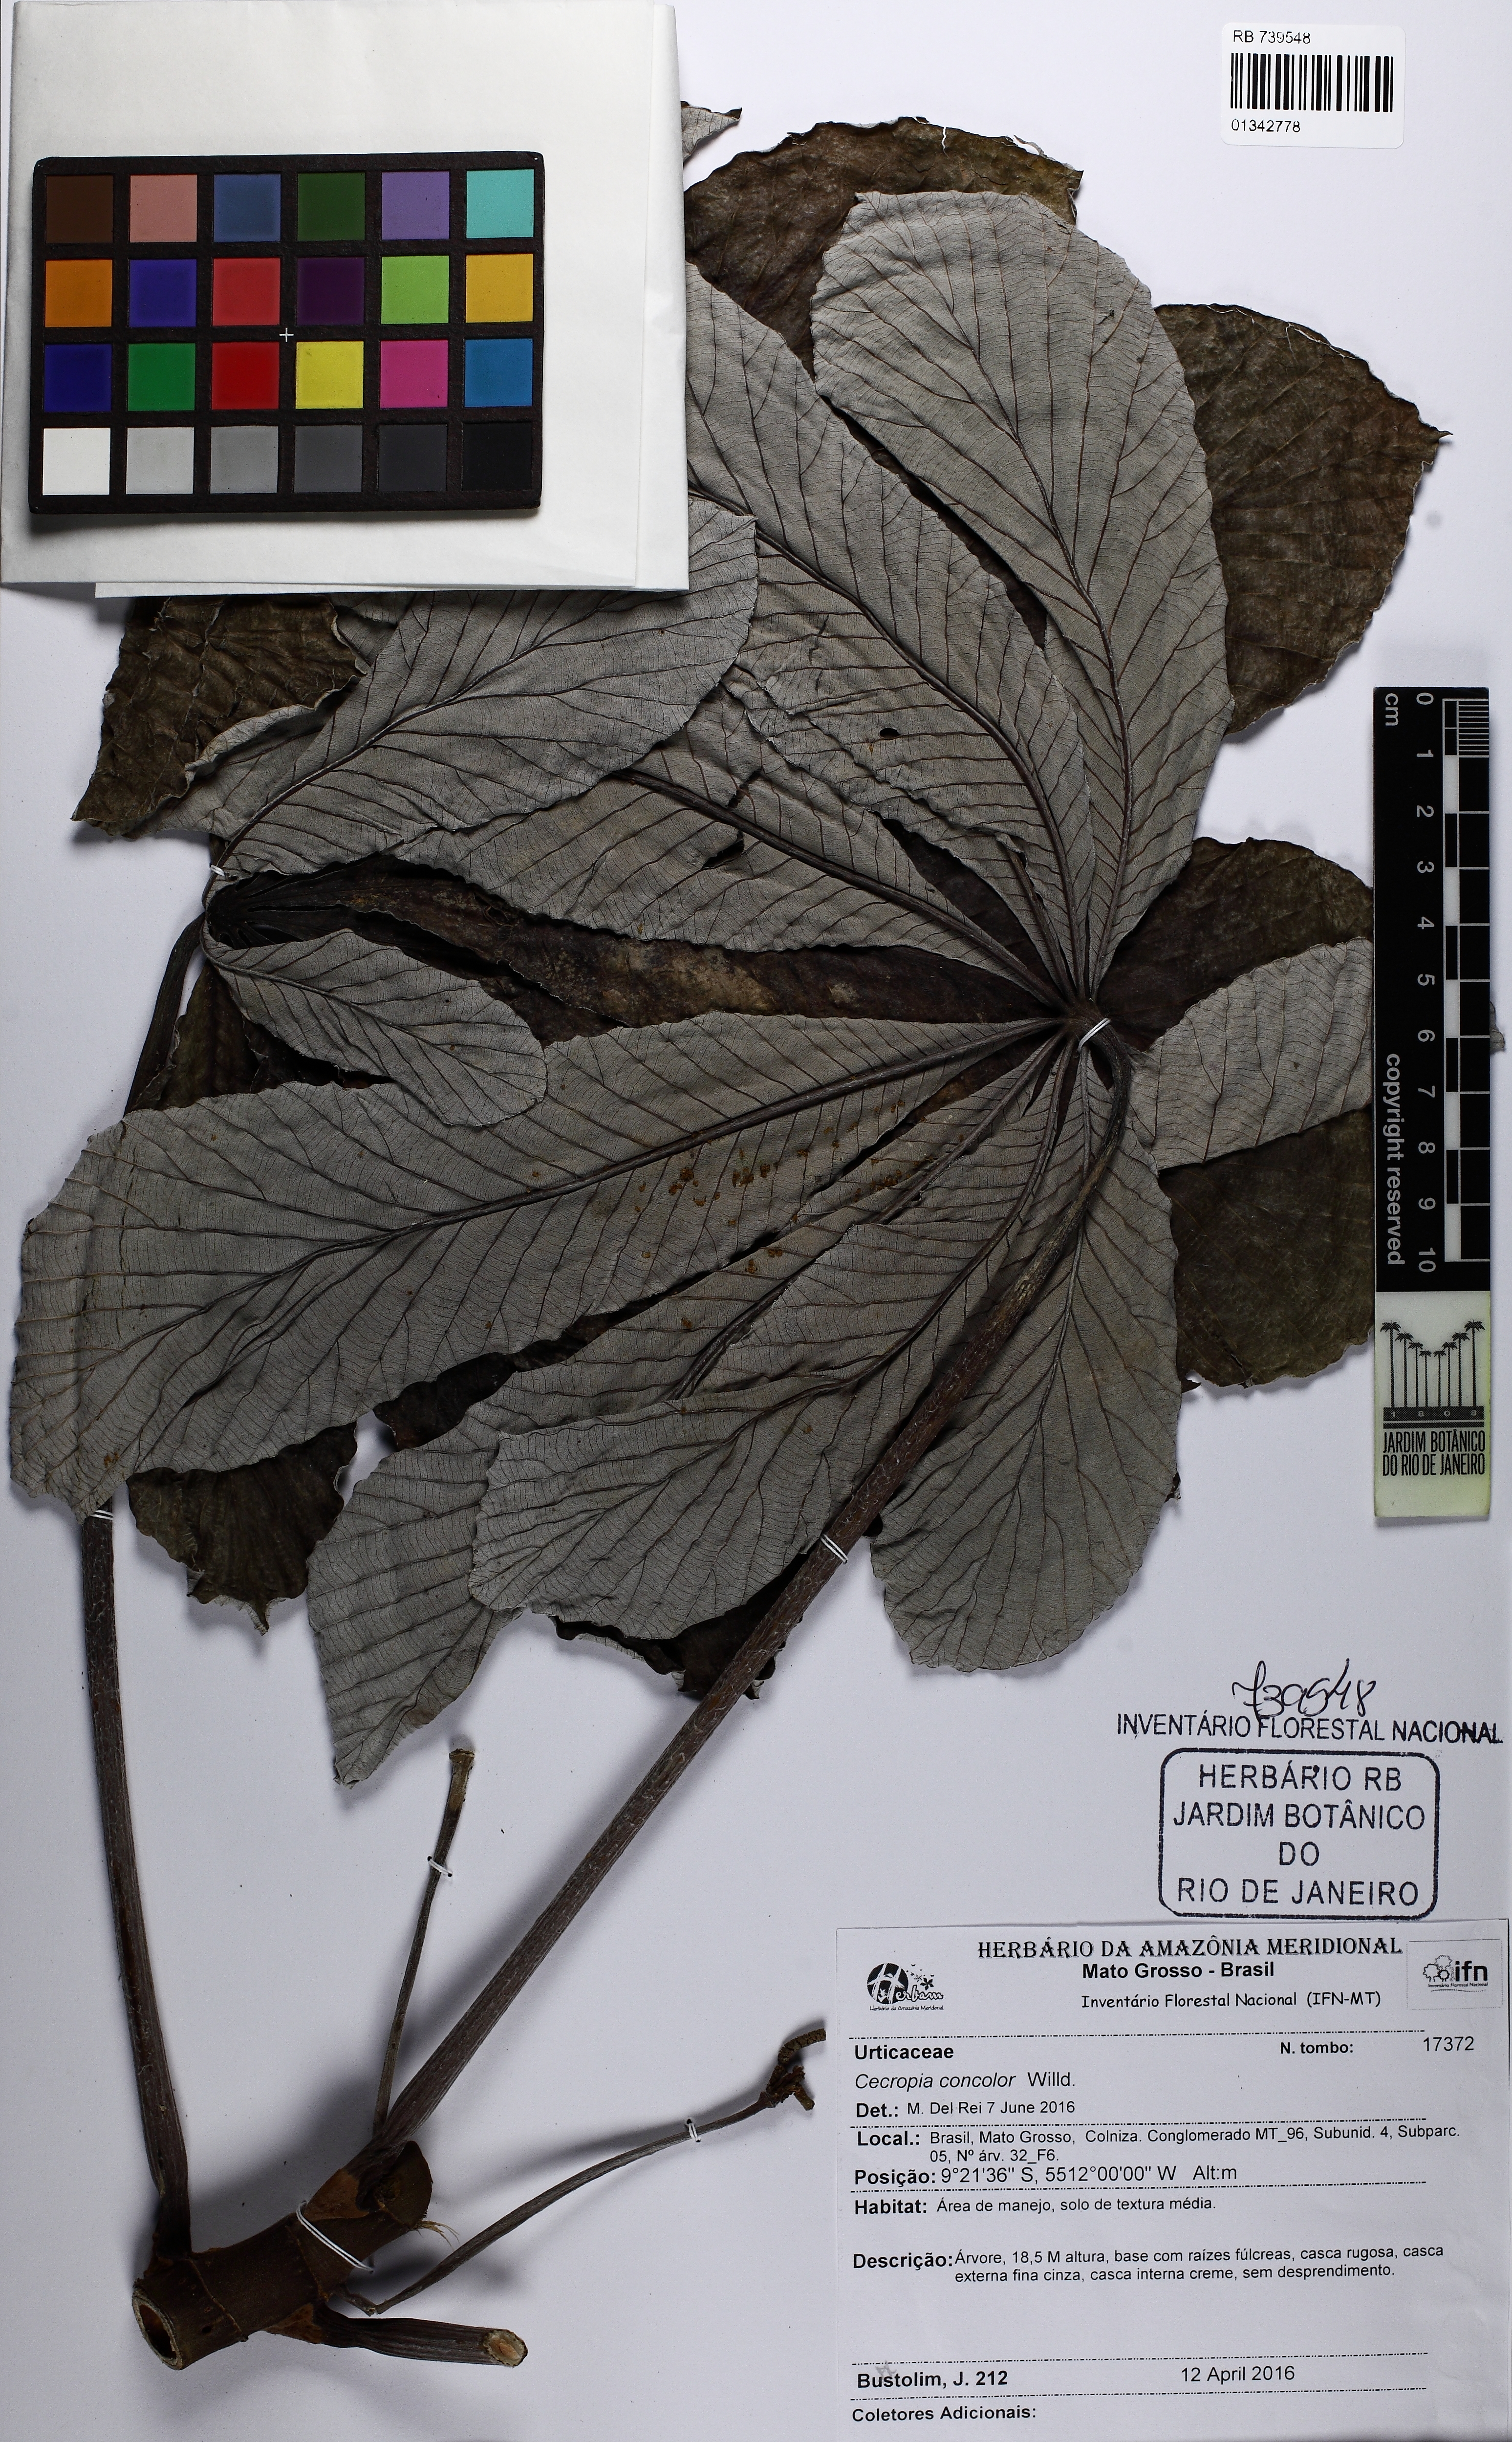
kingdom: Plantae
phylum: Tracheophyta
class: Magnoliopsida
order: Rosales
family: Urticaceae
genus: Cecropia
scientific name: Cecropia concolor
